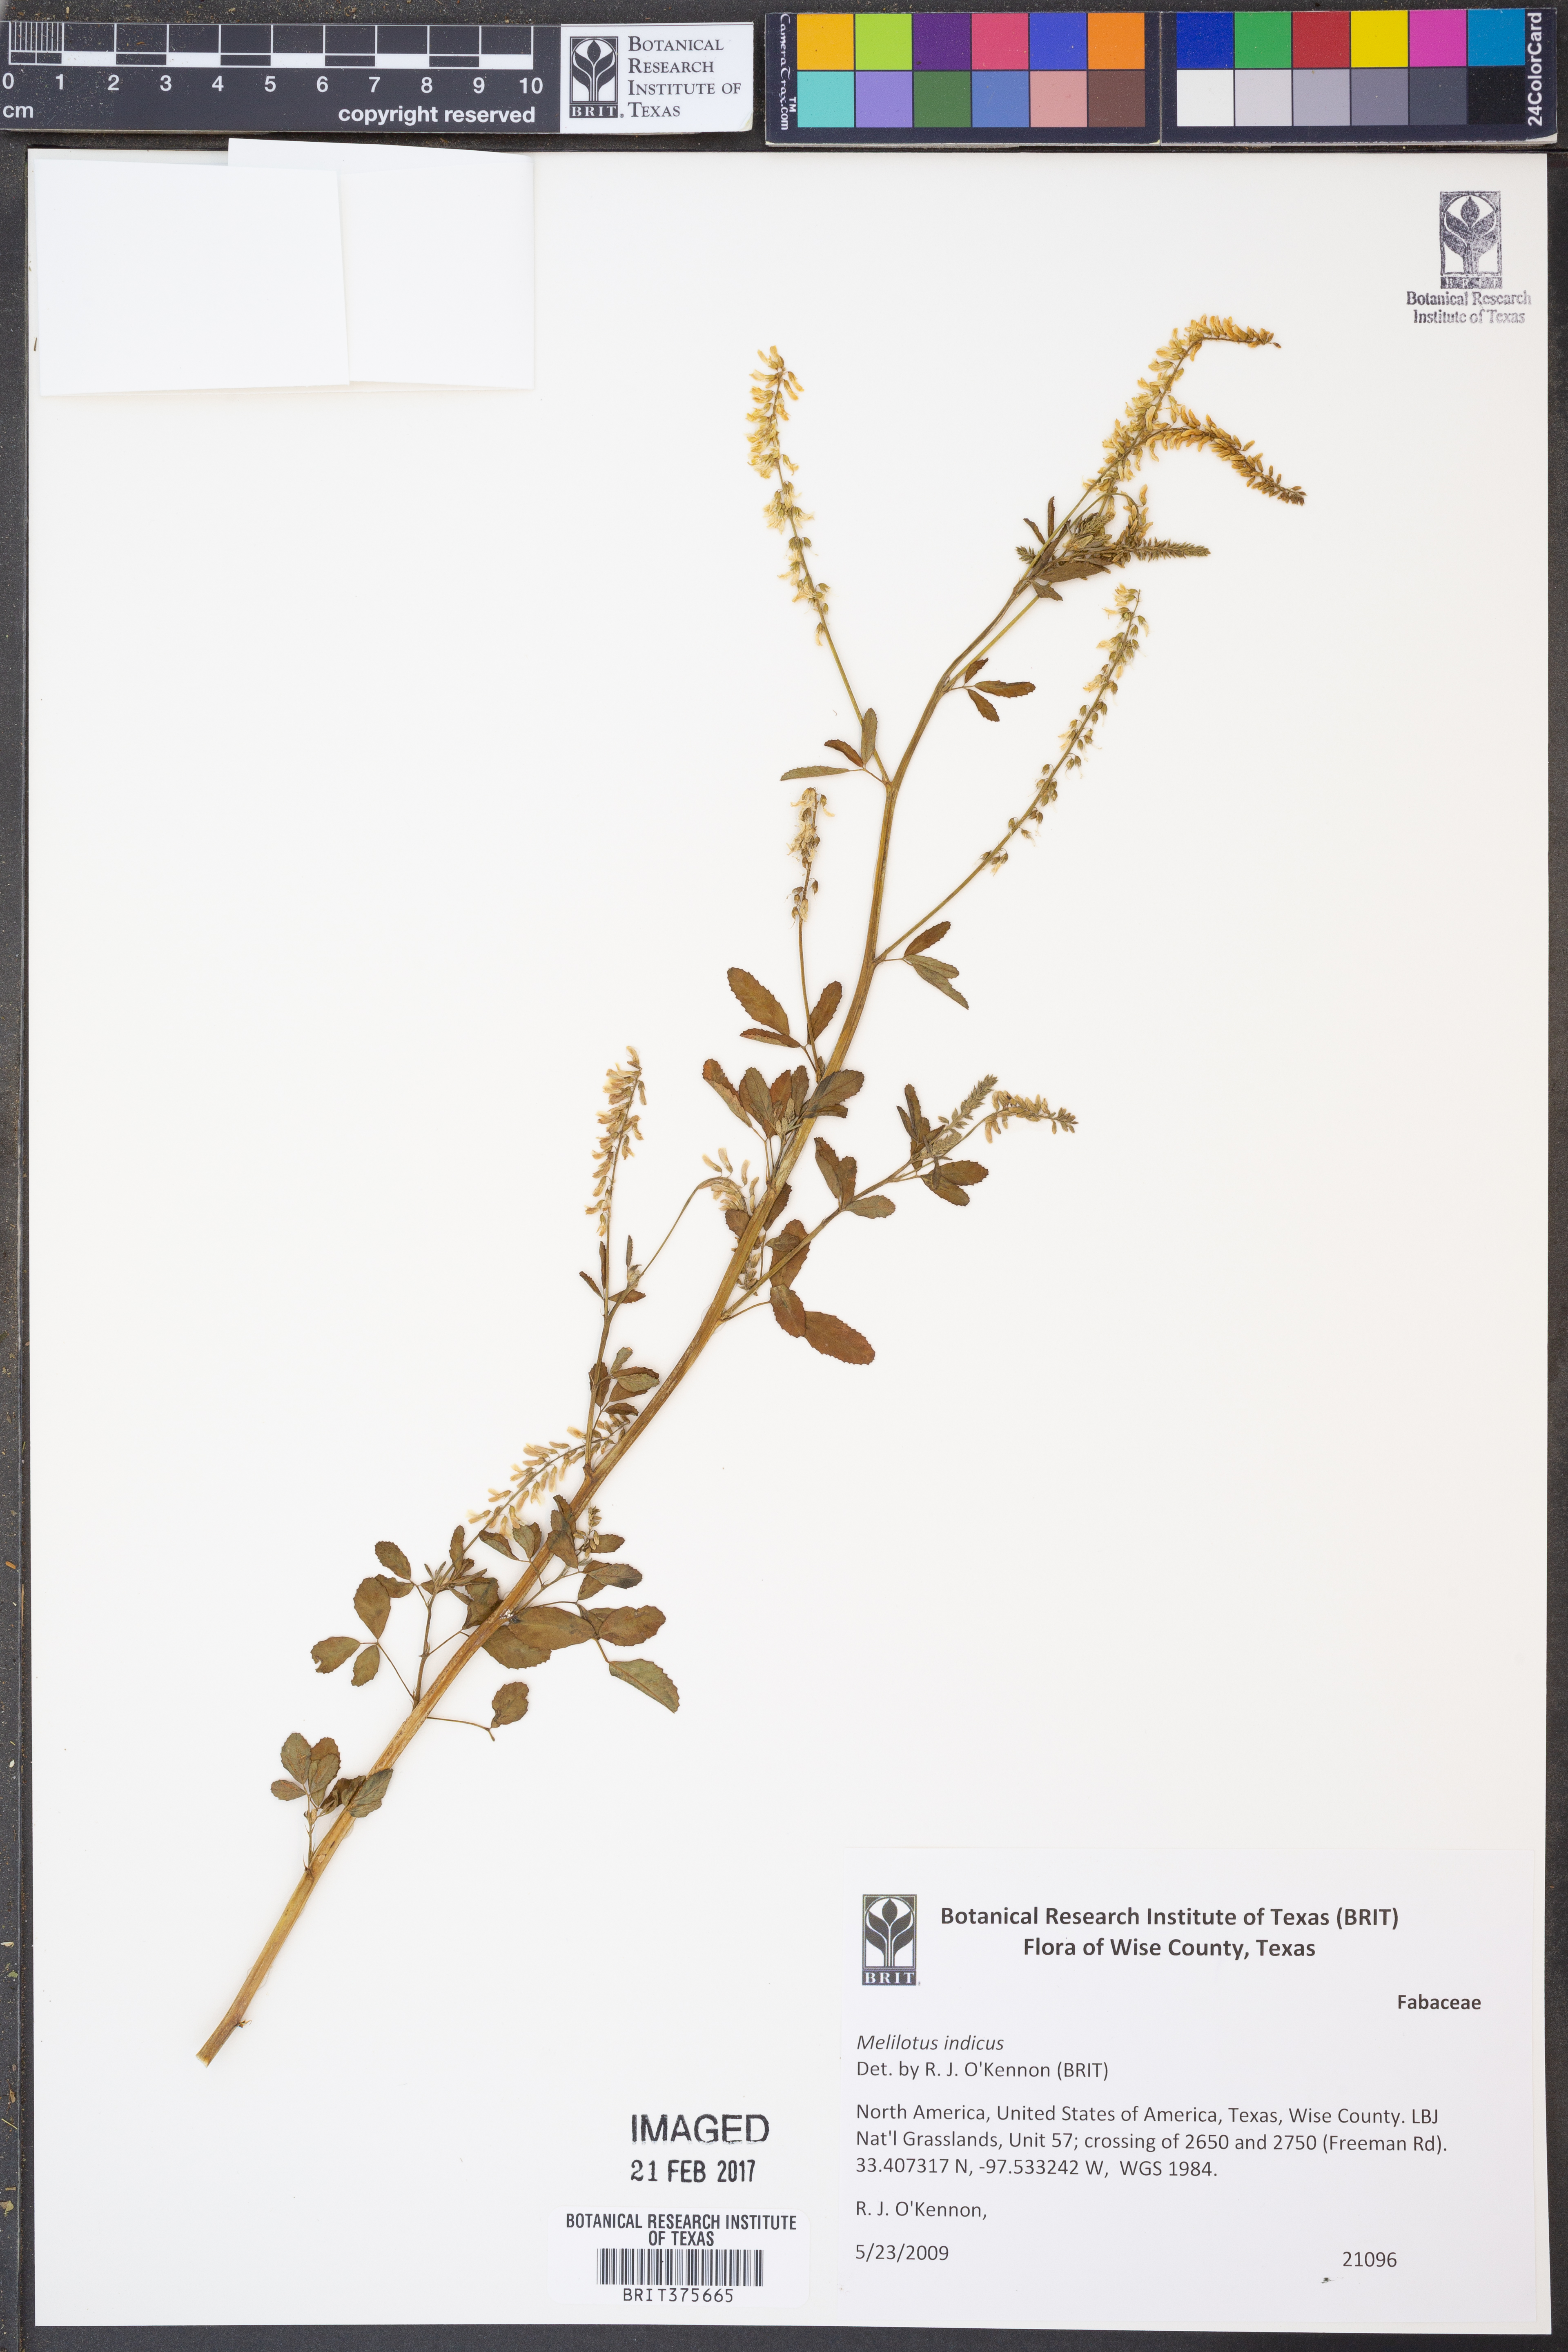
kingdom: Plantae
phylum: Tracheophyta
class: Magnoliopsida
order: Fabales
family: Fabaceae
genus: Melilotus
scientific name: Melilotus indicus
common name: Small melilot
